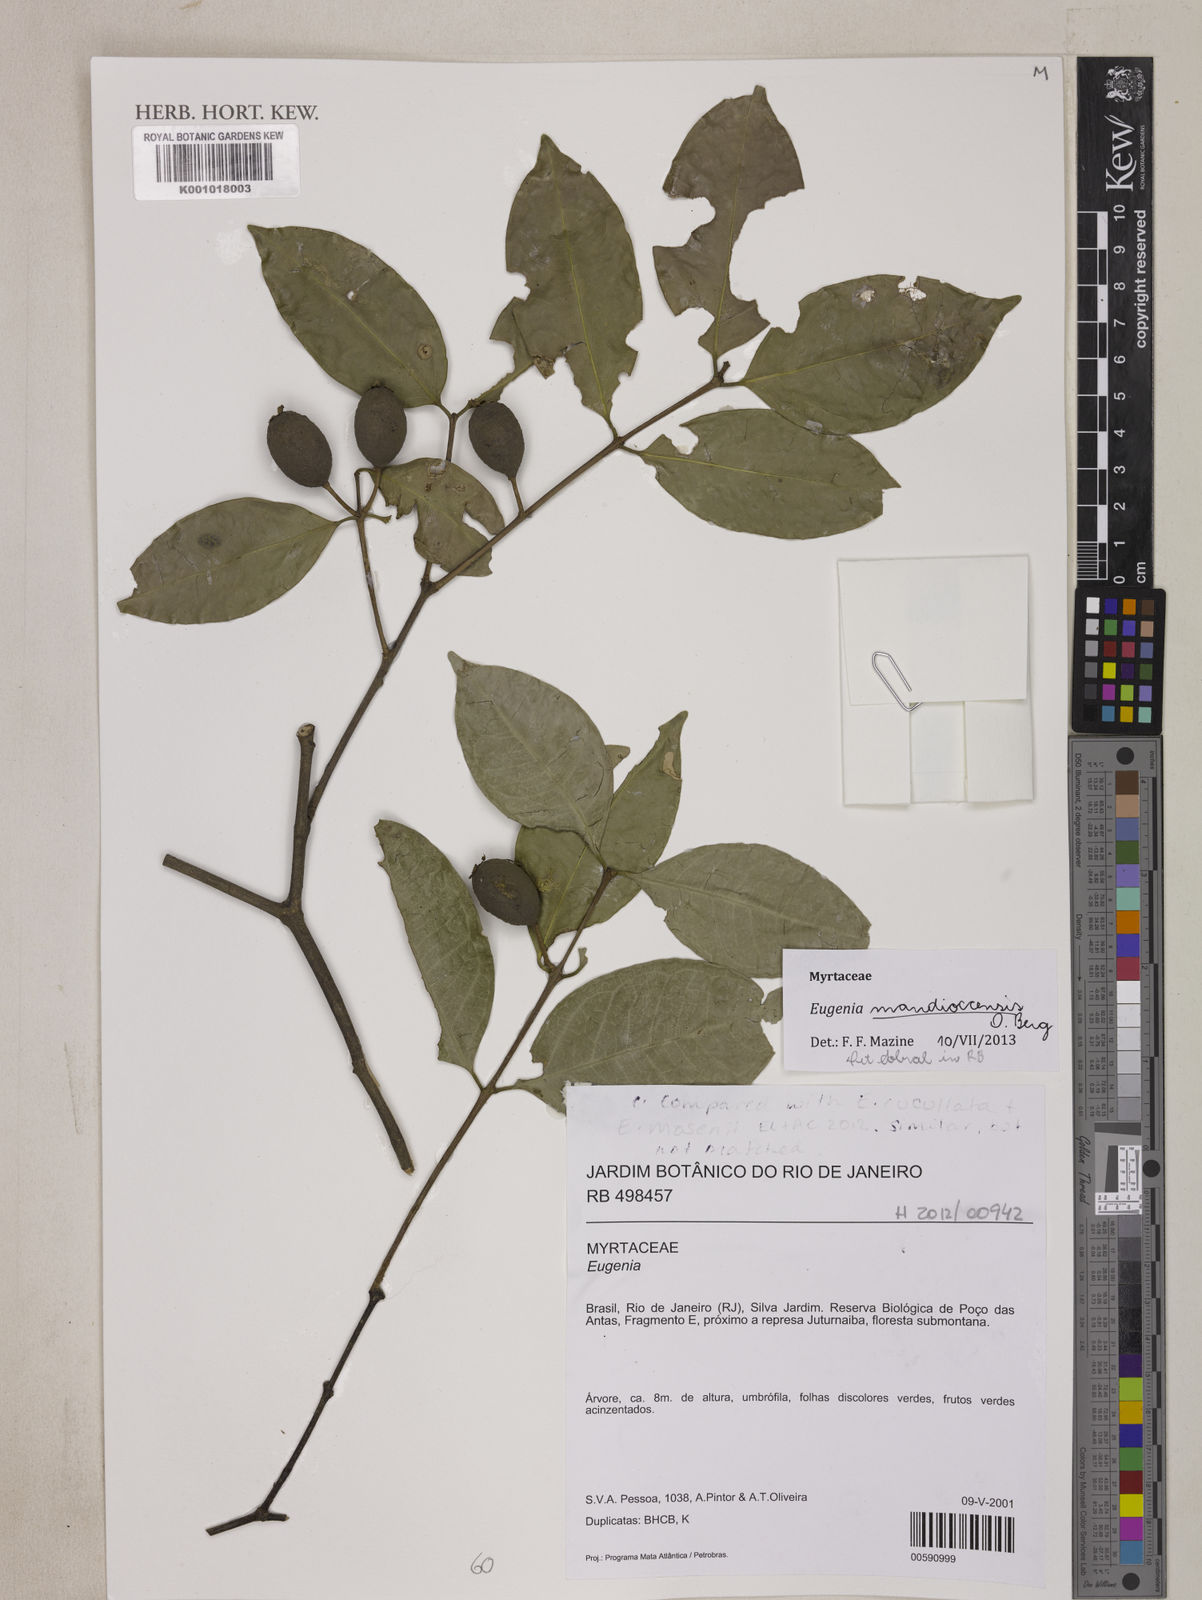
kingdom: Plantae
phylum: Tracheophyta
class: Magnoliopsida
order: Myrtales
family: Myrtaceae
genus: Eugenia
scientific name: Eugenia mandioccensis
